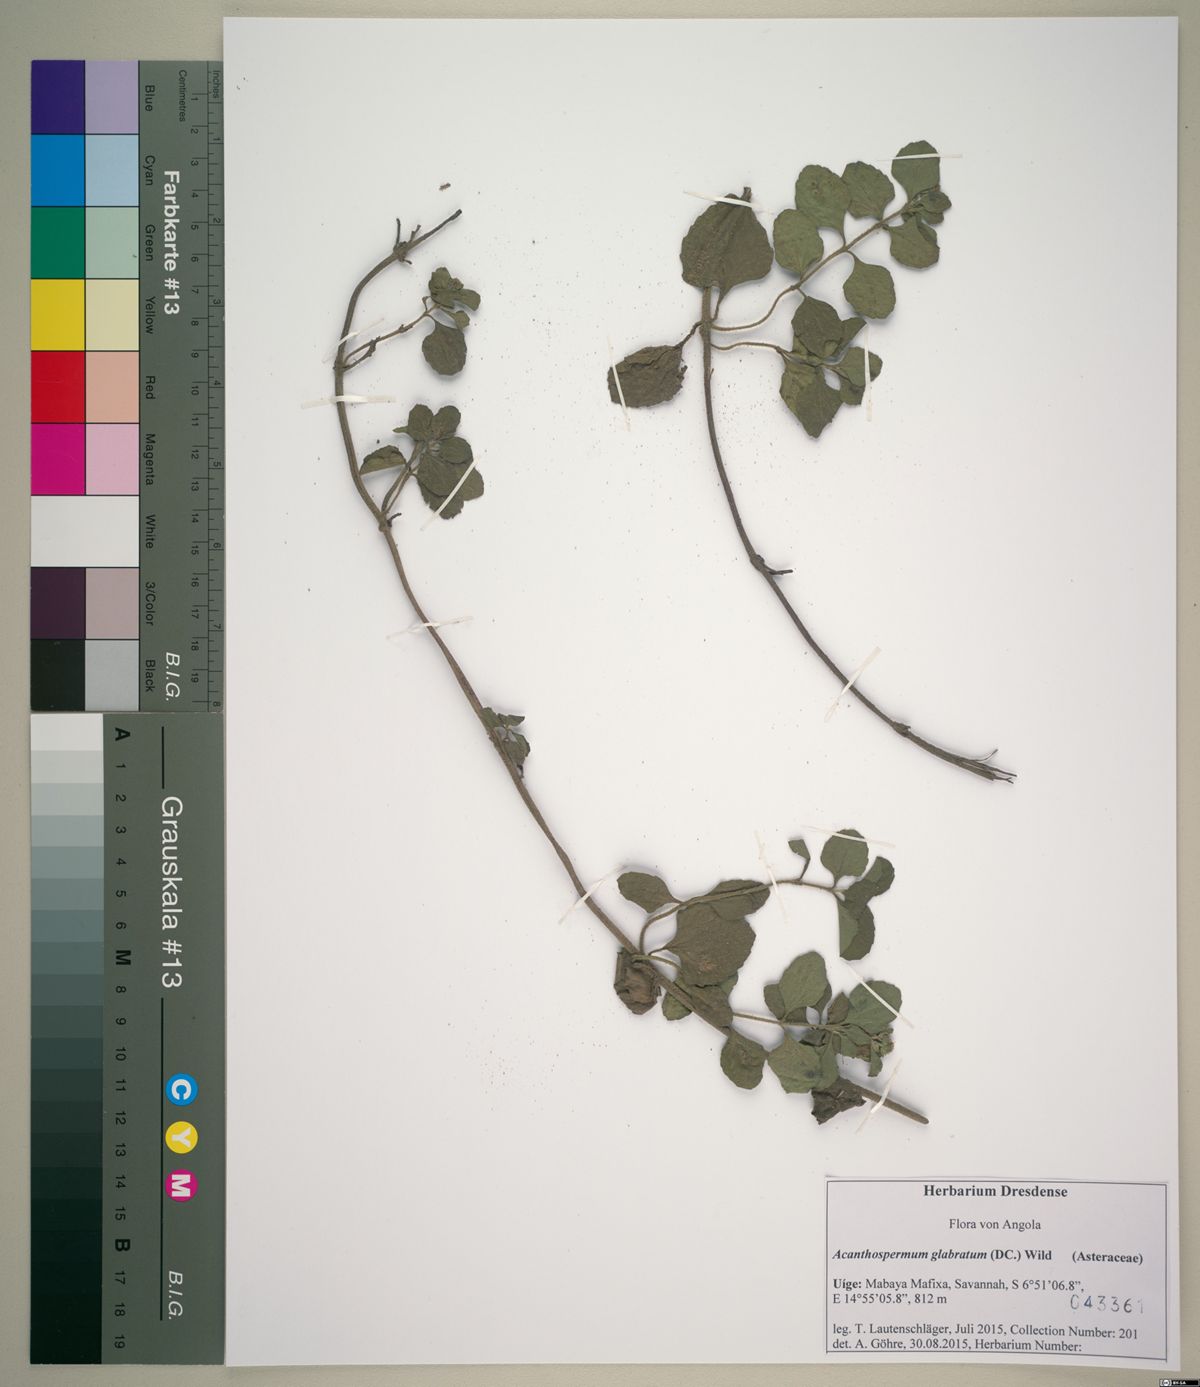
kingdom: Plantae
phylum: Tracheophyta
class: Magnoliopsida
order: Asterales
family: Asteraceae
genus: Acanthospermum
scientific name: Acanthospermum australe
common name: Paraguayan starbur
